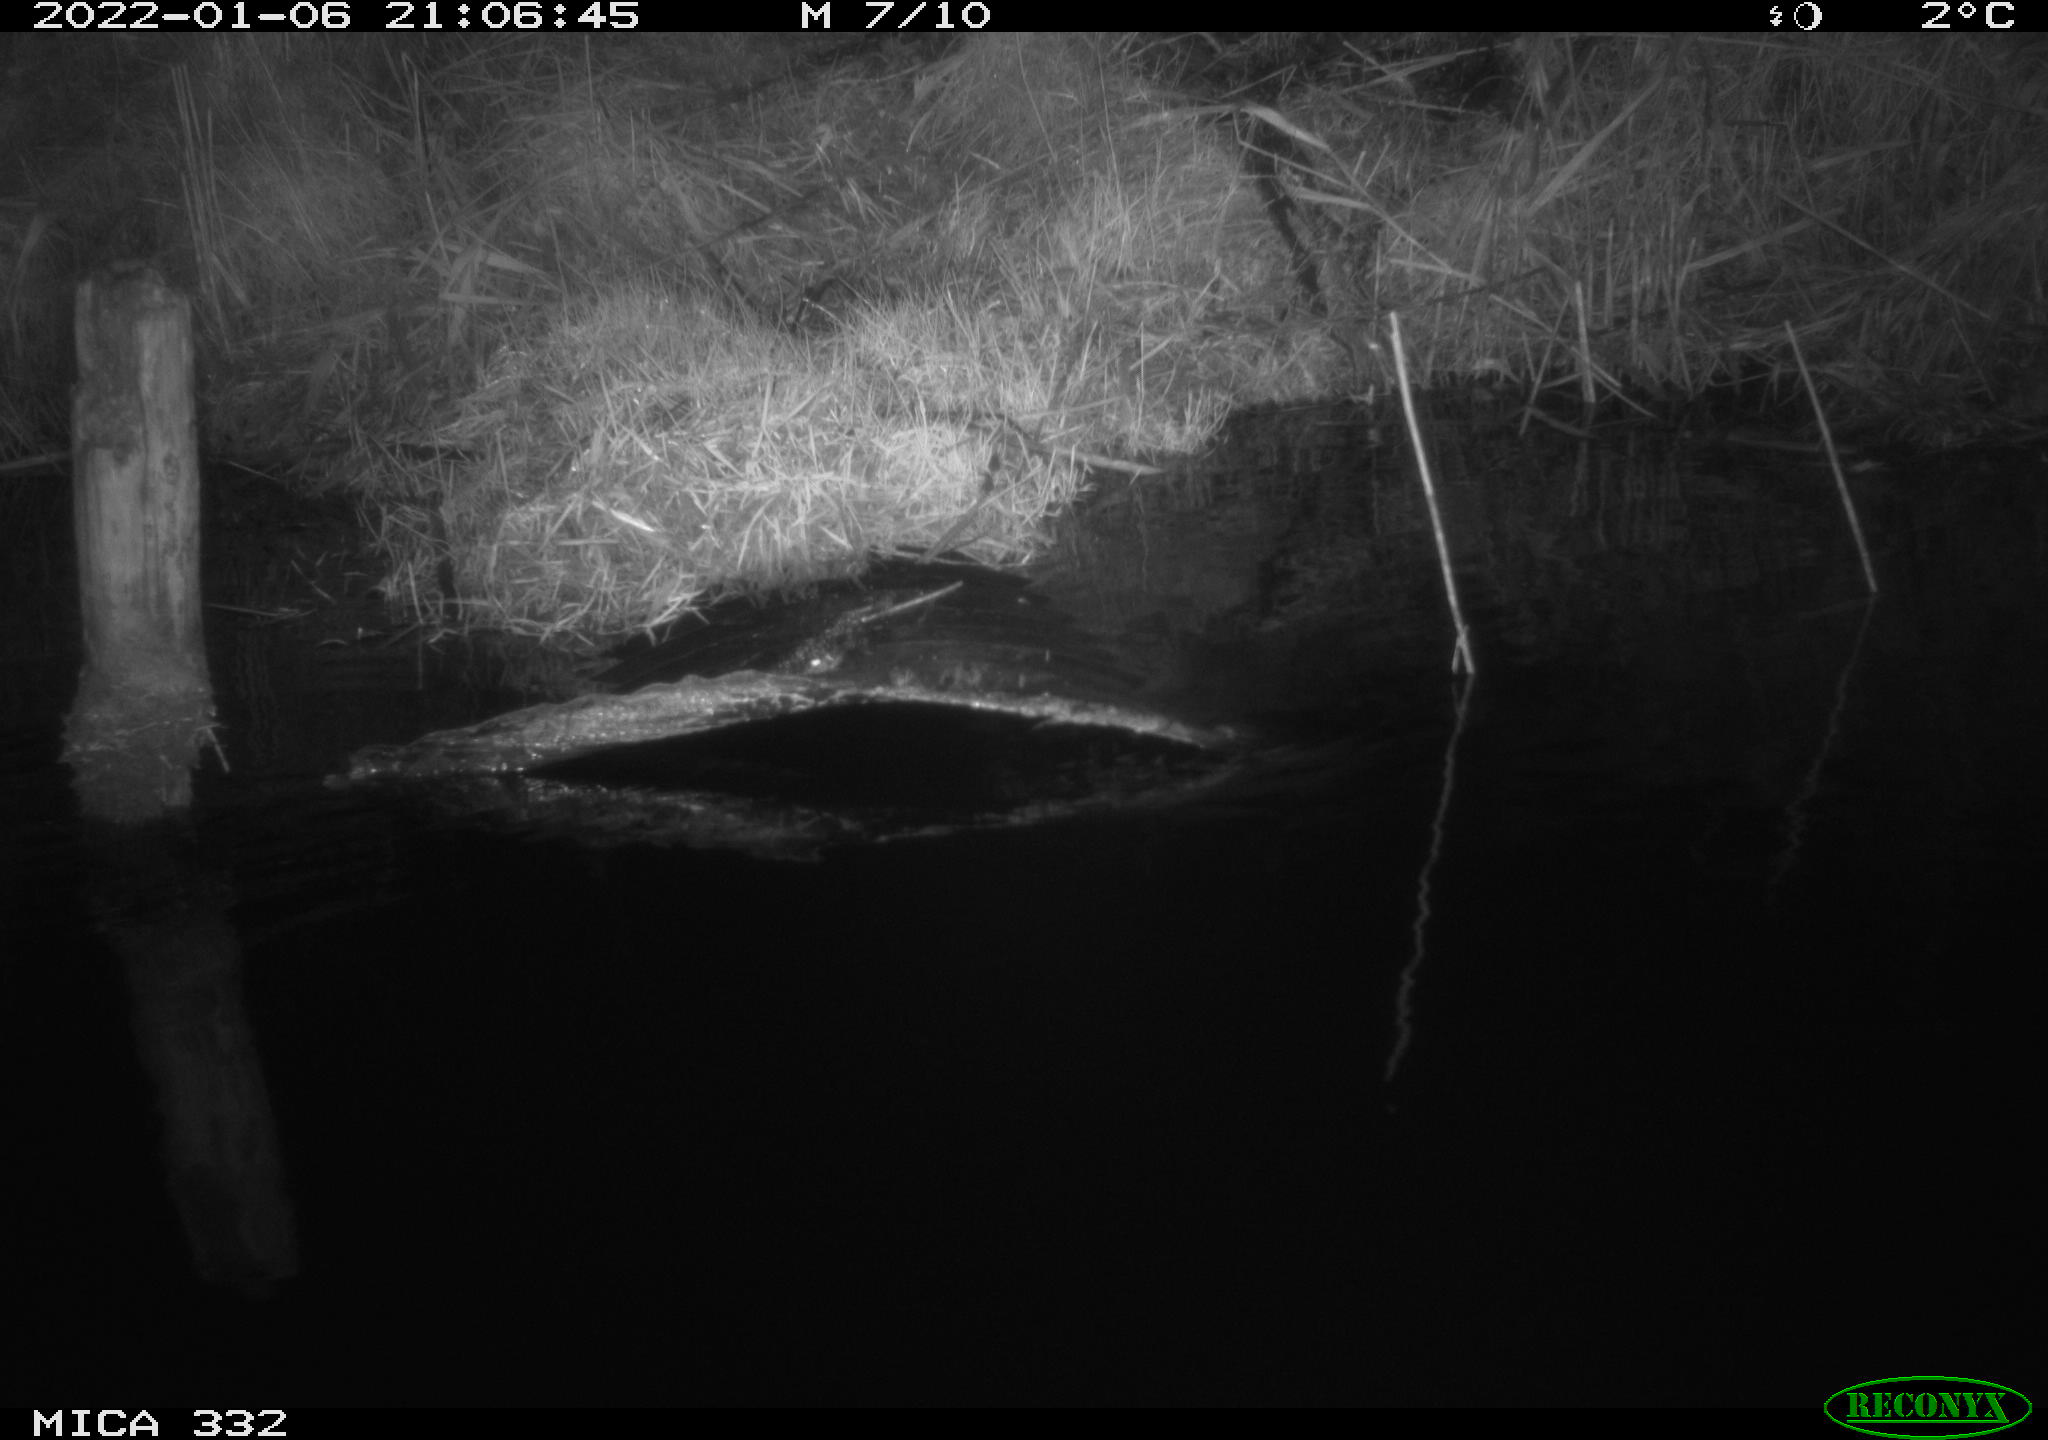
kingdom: Animalia
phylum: Chordata
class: Aves
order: Anseriformes
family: Anatidae
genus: Cygnus
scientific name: Cygnus olor
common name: Mute swan
